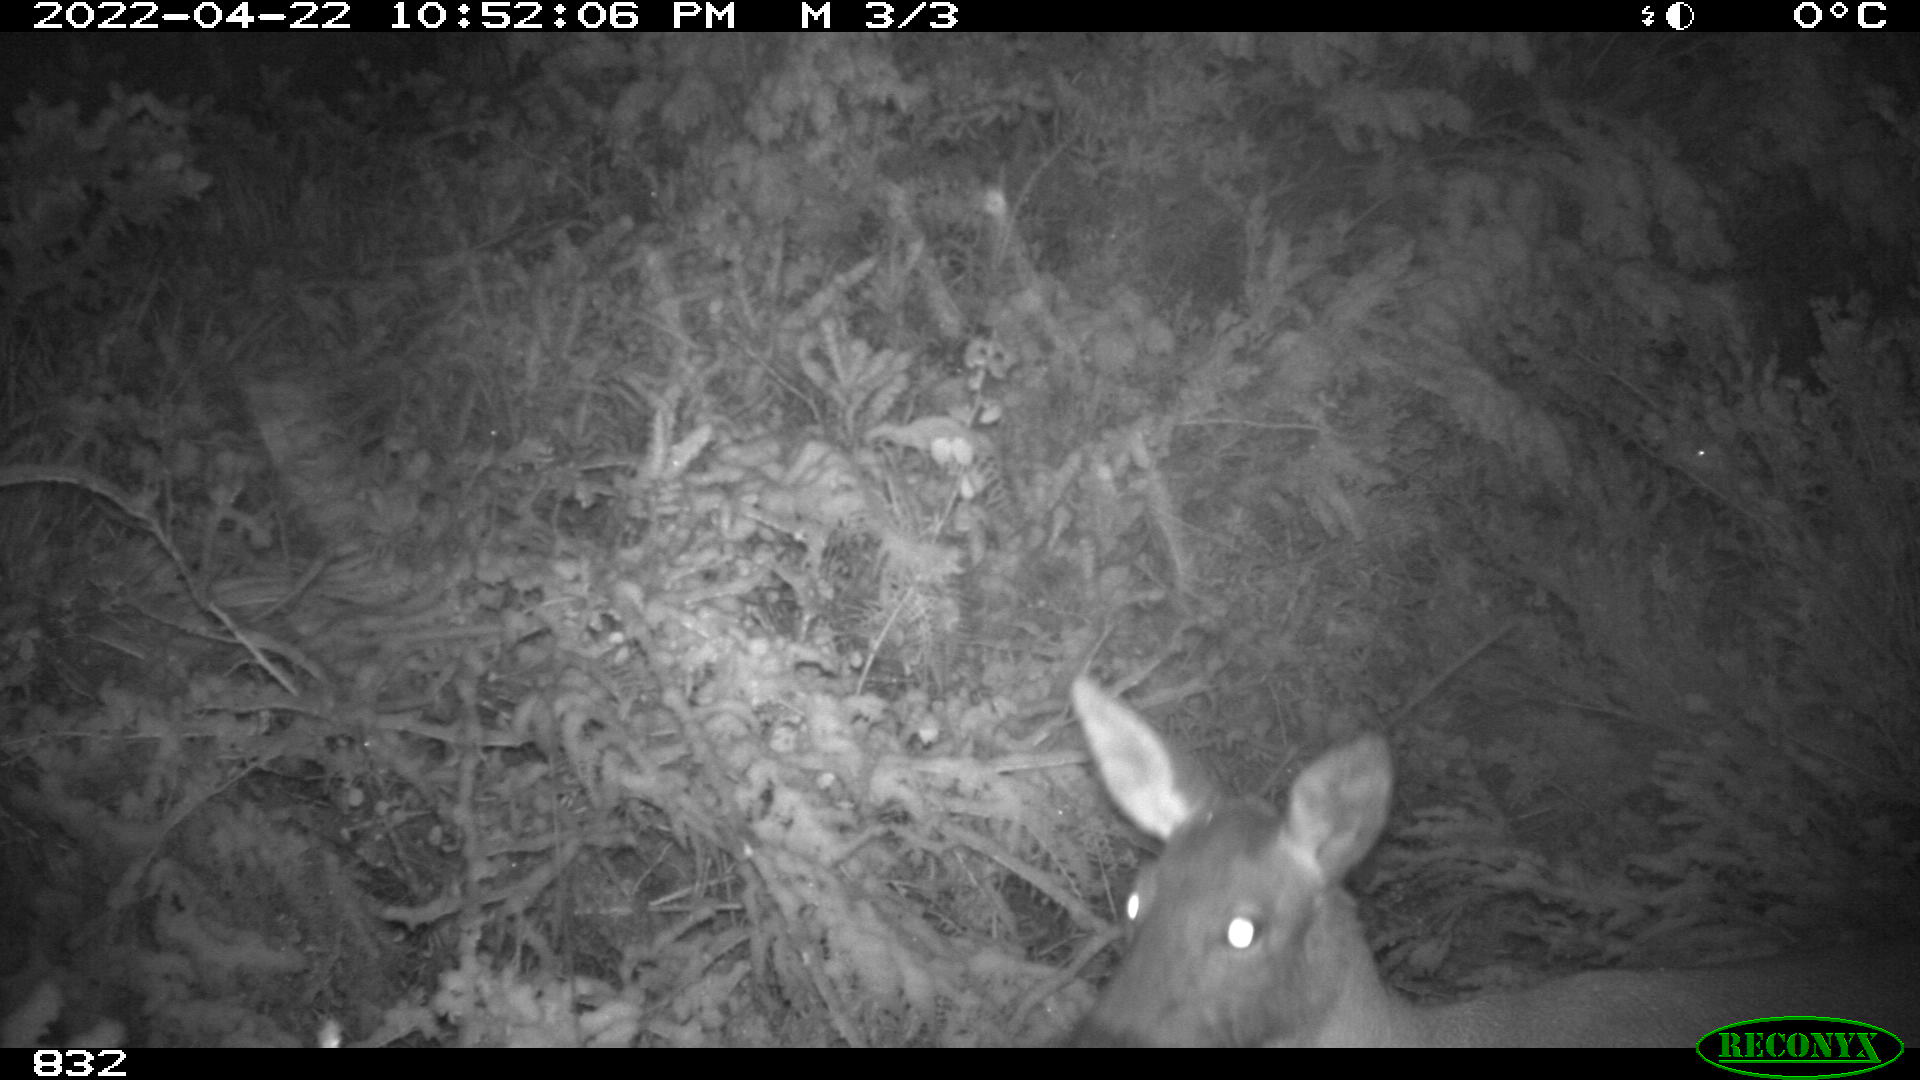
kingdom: Animalia
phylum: Chordata
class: Mammalia
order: Artiodactyla
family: Cervidae
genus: Capreolus
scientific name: Capreolus capreolus
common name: Western roe deer
